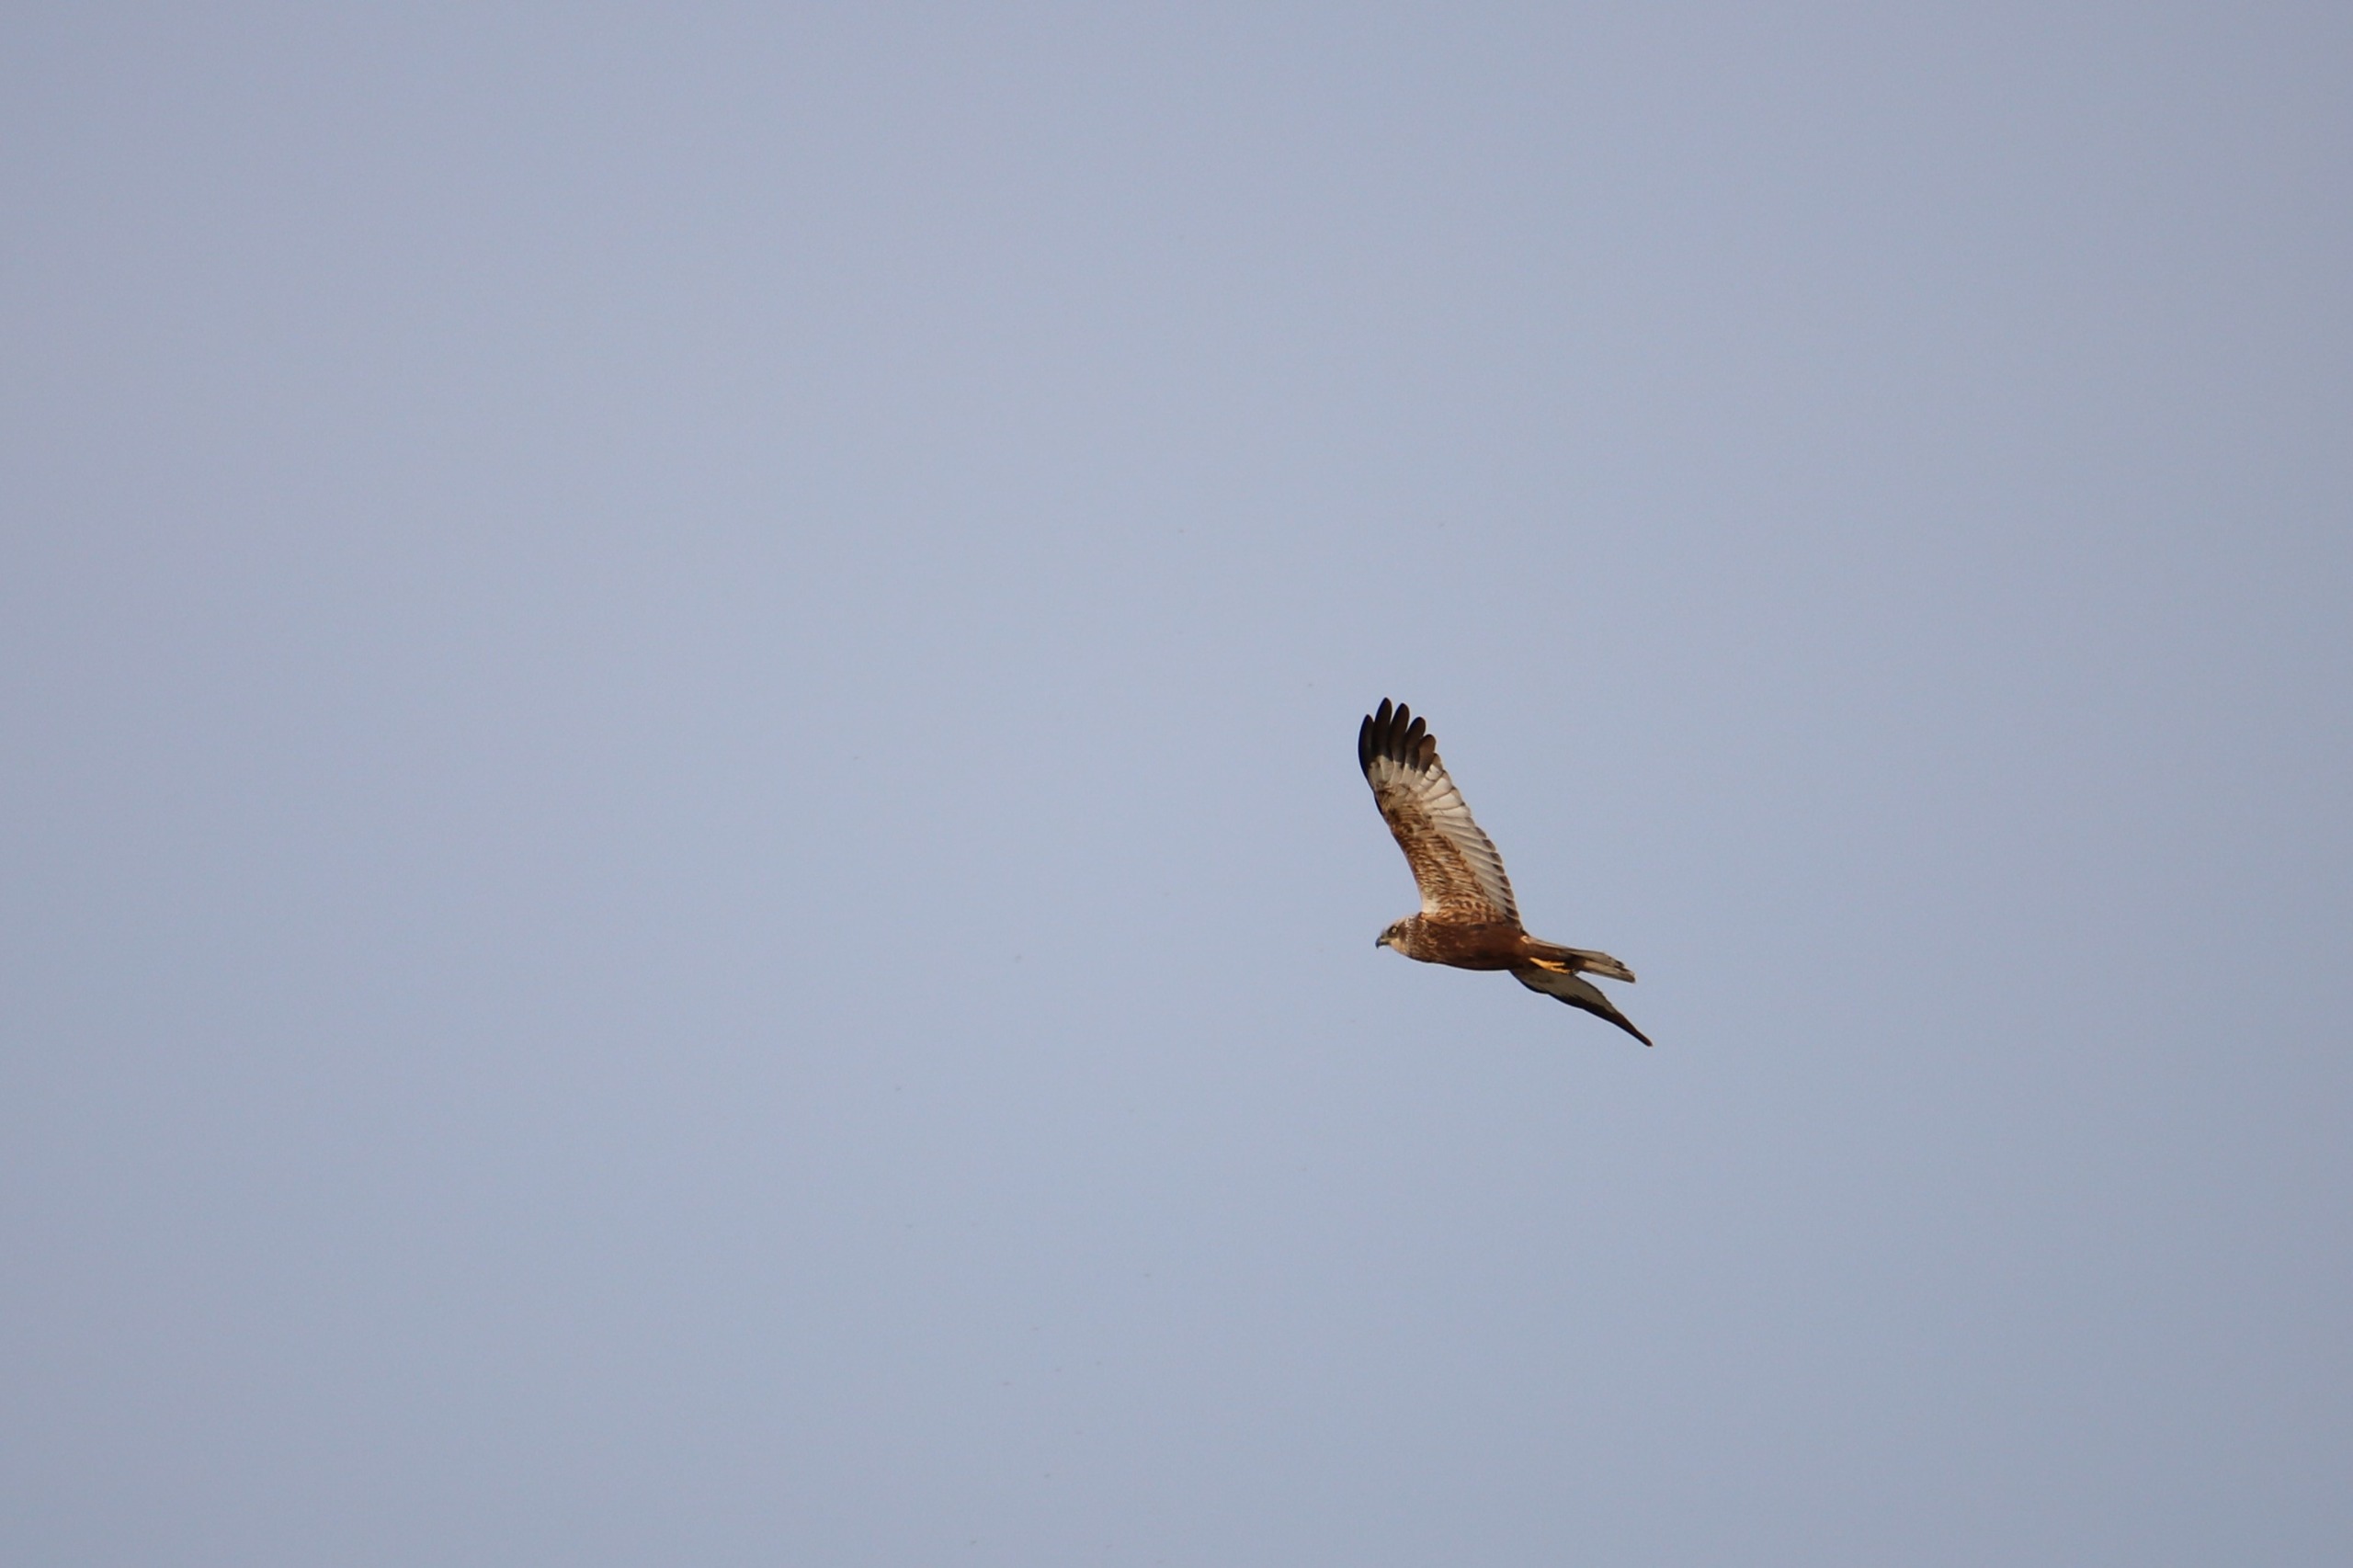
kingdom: Animalia
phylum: Chordata
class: Aves
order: Accipitriformes
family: Accipitridae
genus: Circus
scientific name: Circus aeruginosus
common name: Rørhøg
